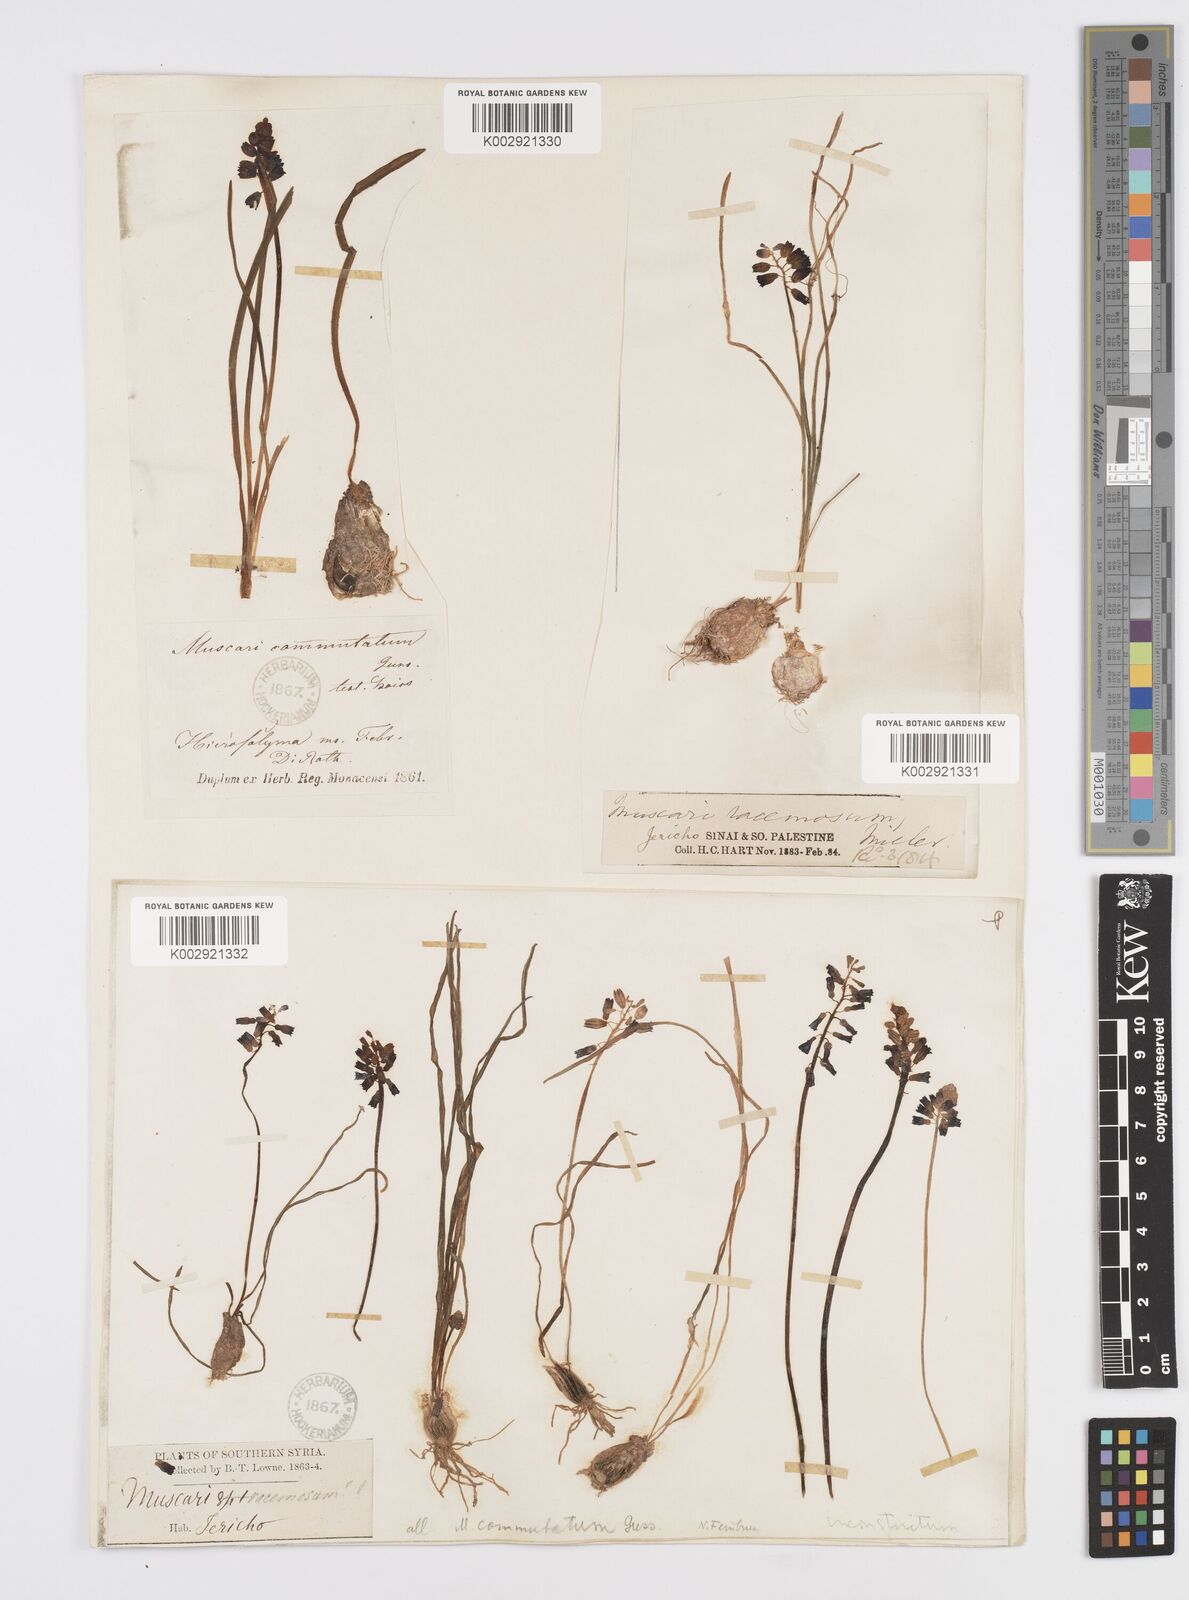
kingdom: Plantae
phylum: Tracheophyta
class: Liliopsida
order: Asparagales
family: Asparagaceae
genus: Muscari
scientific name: Muscari inconstrictum
